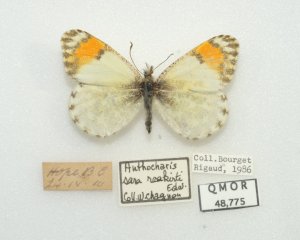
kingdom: Animalia
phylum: Arthropoda
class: Insecta
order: Lepidoptera
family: Pieridae
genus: Anthocharis
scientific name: Anthocharis sara
